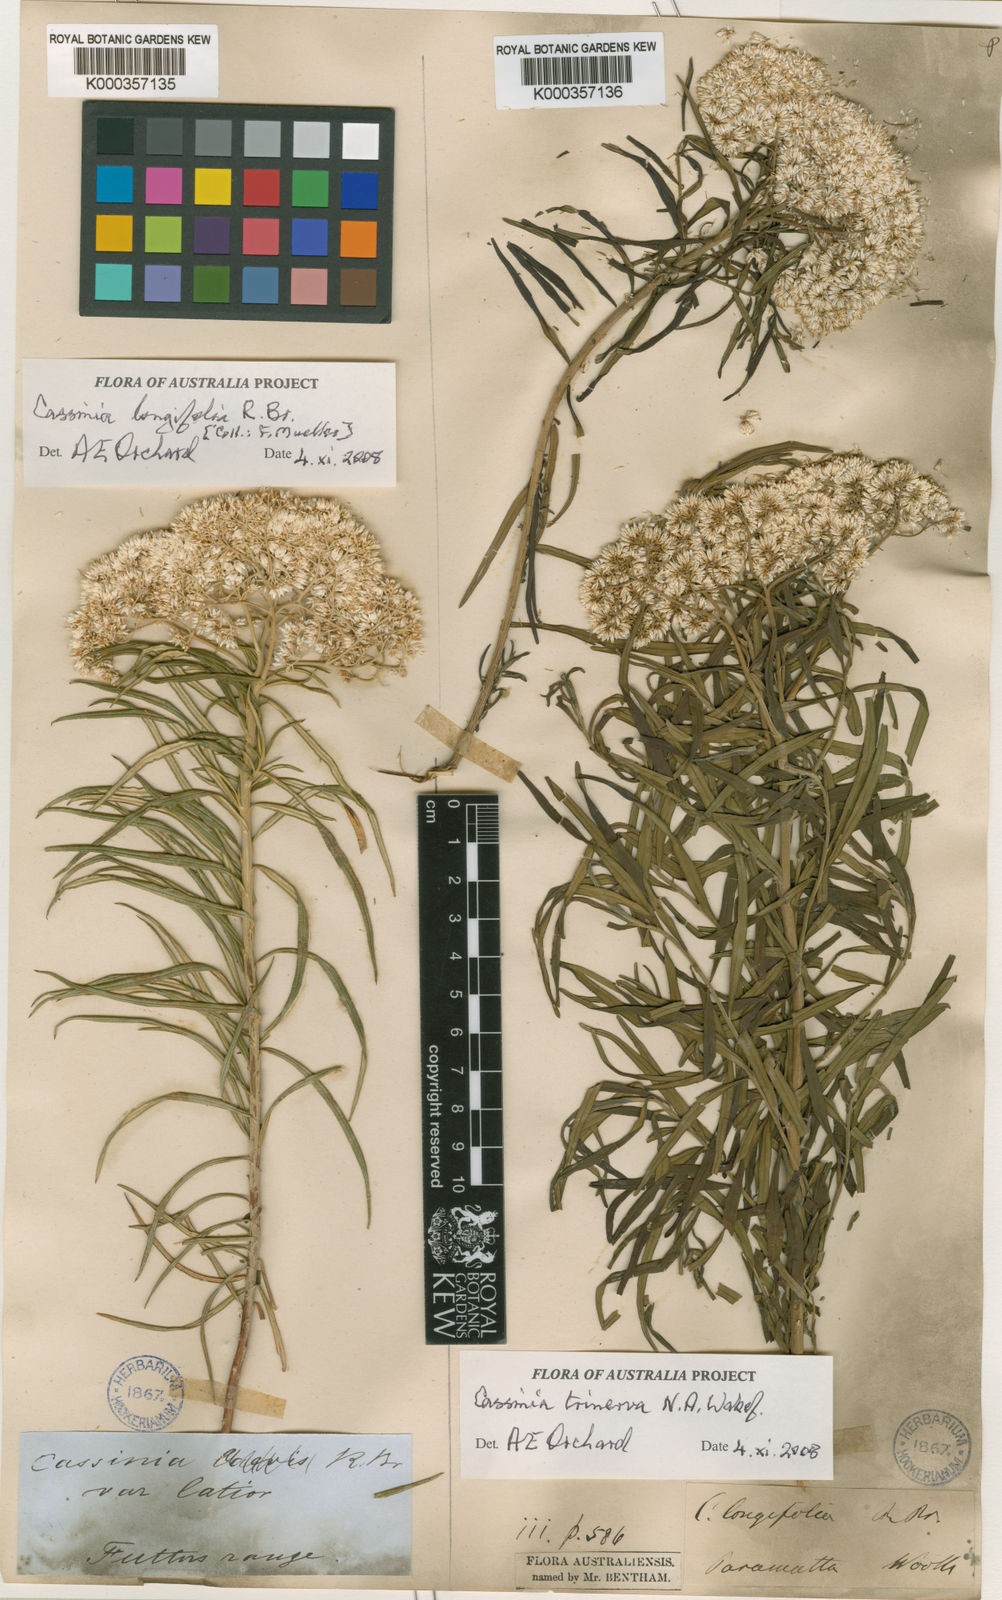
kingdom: Plantae
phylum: Tracheophyta
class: Magnoliopsida
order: Asterales
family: Asteraceae
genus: Cassinia
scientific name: Cassinia trinerva
